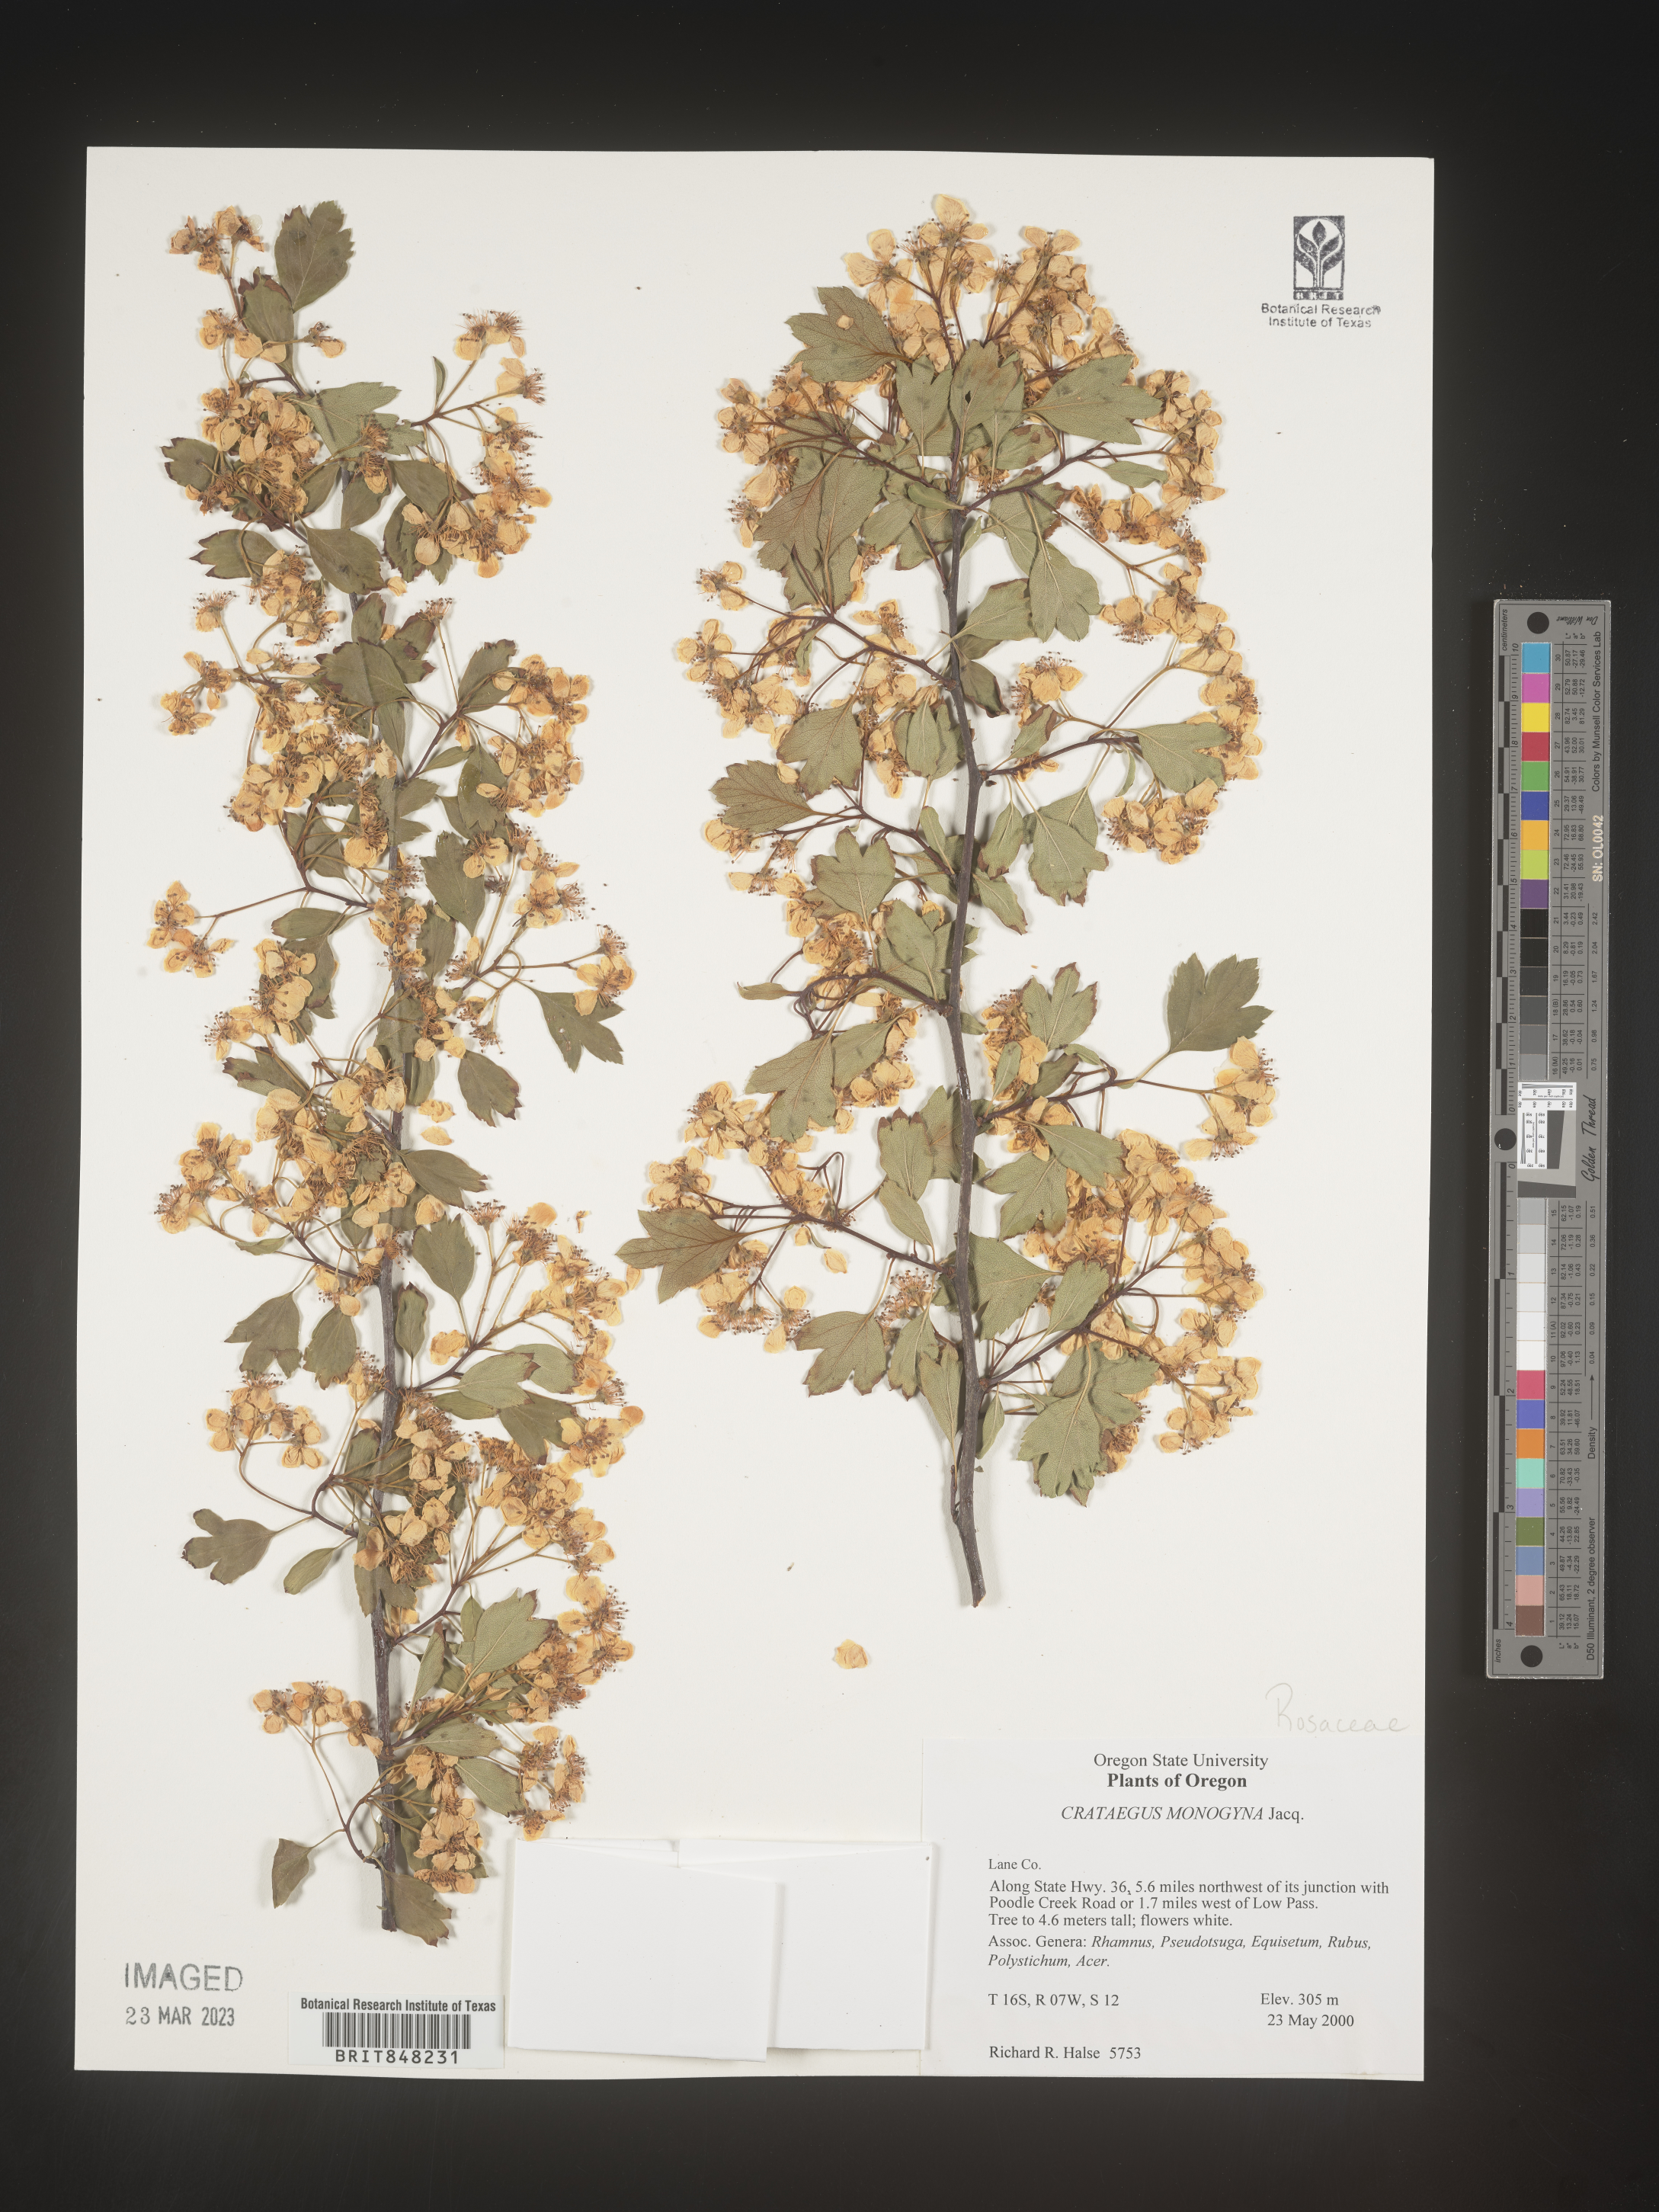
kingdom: Plantae
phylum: Tracheophyta
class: Magnoliopsida
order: Rosales
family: Rosaceae
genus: Crataegus
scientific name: Crataegus monogyna
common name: Hawthorn
